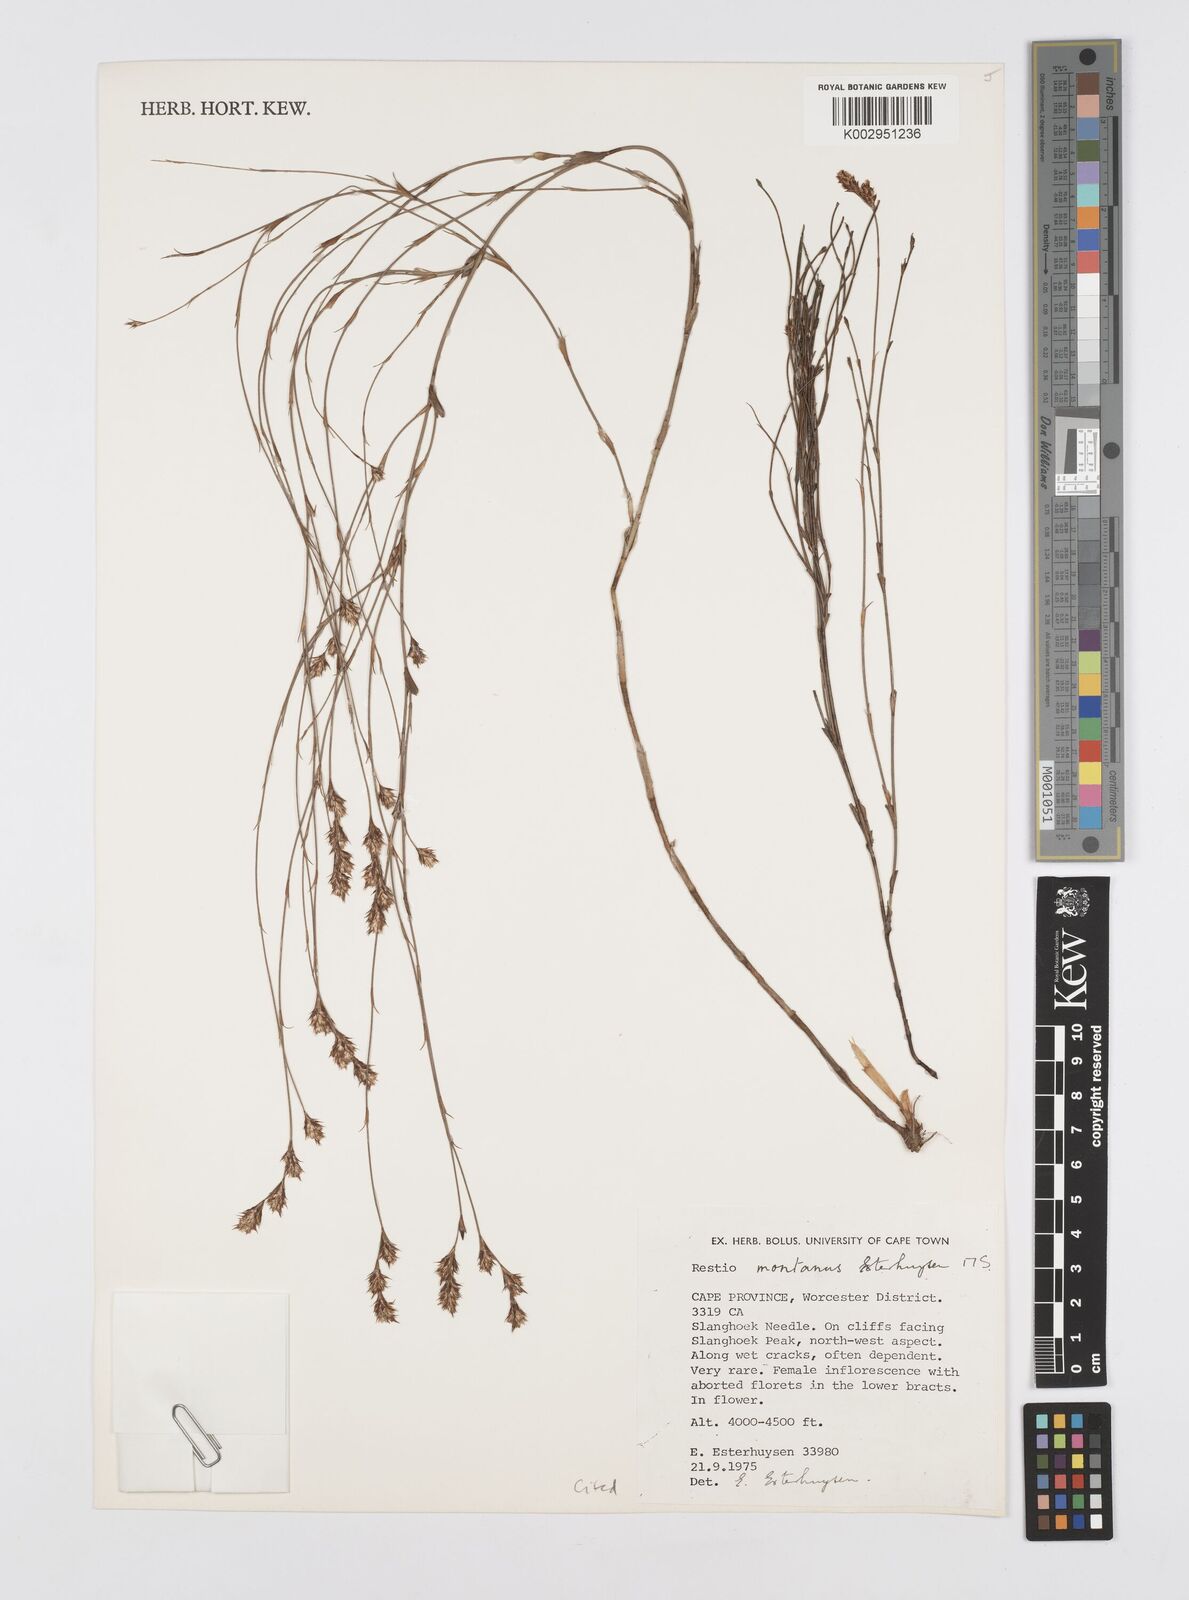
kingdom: Plantae
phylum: Tracheophyta
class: Liliopsida
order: Poales
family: Restionaceae
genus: Restio
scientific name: Restio montanus
